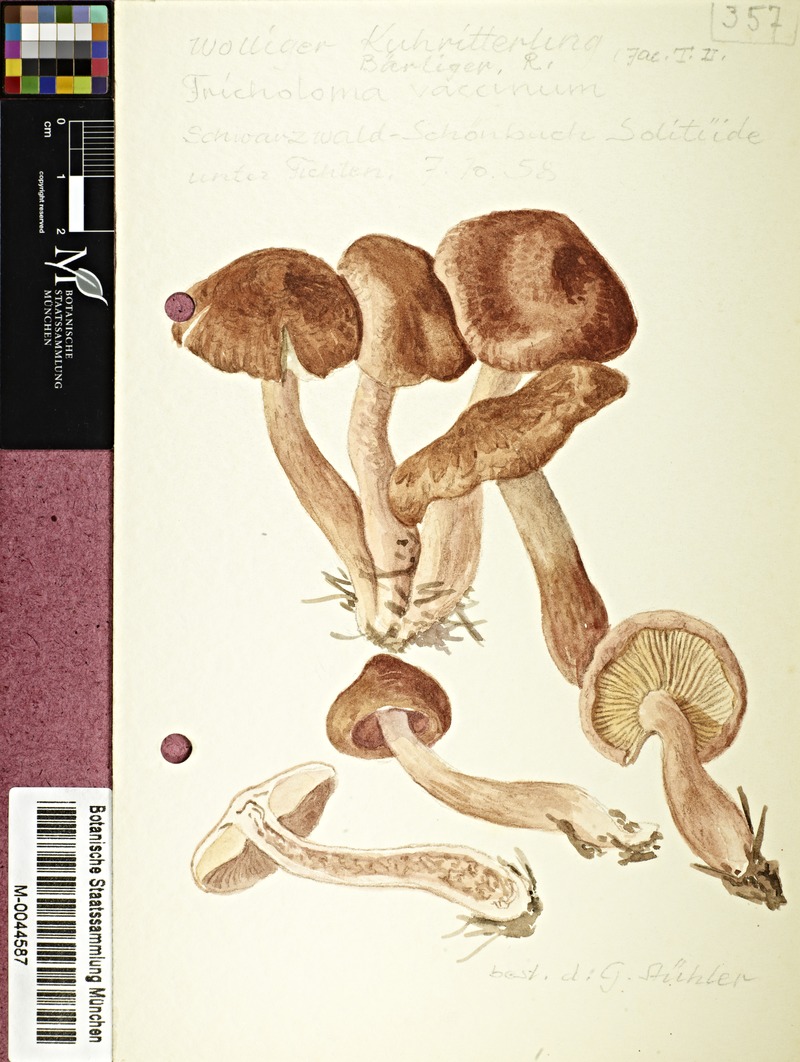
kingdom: Fungi
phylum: Basidiomycota
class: Agaricomycetes
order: Agaricales
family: Tricholomataceae
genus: Tricholoma
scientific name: Tricholoma vaccinum
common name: Scaly knight
